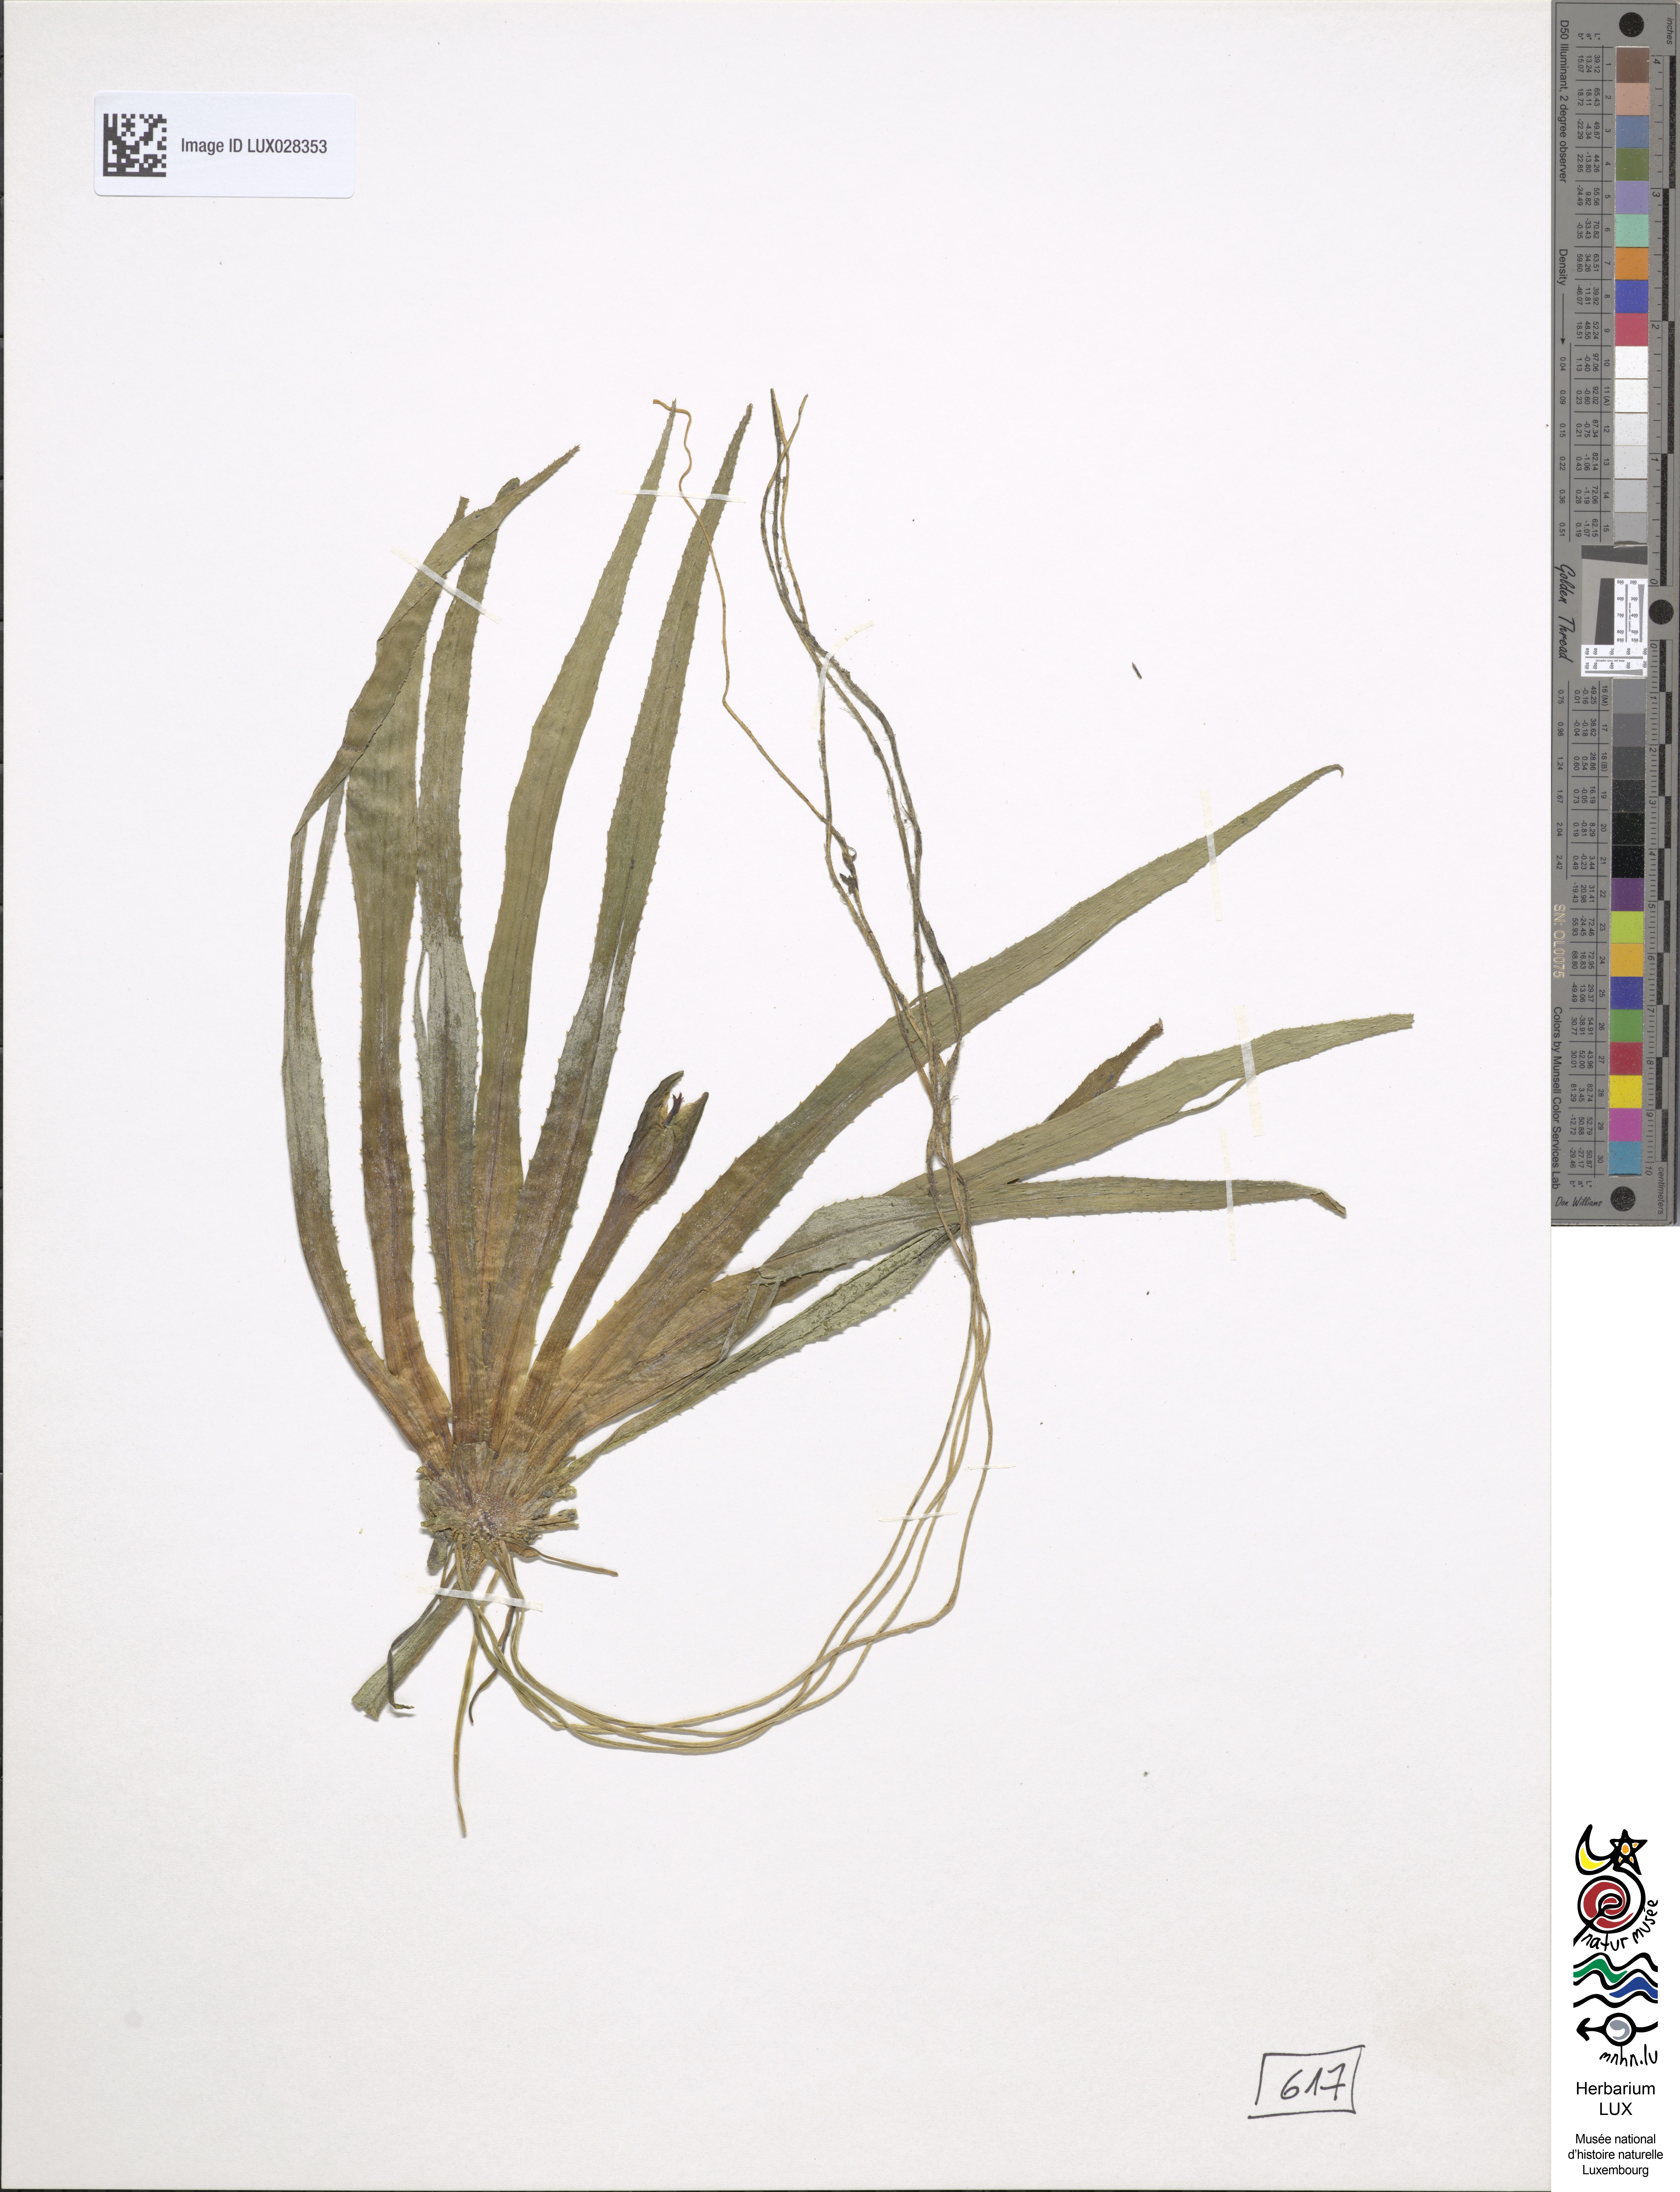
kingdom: Plantae
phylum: Tracheophyta
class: Liliopsida
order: Alismatales
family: Hydrocharitaceae
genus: Stratiotes
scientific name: Stratiotes aloides
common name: Water-soldier
